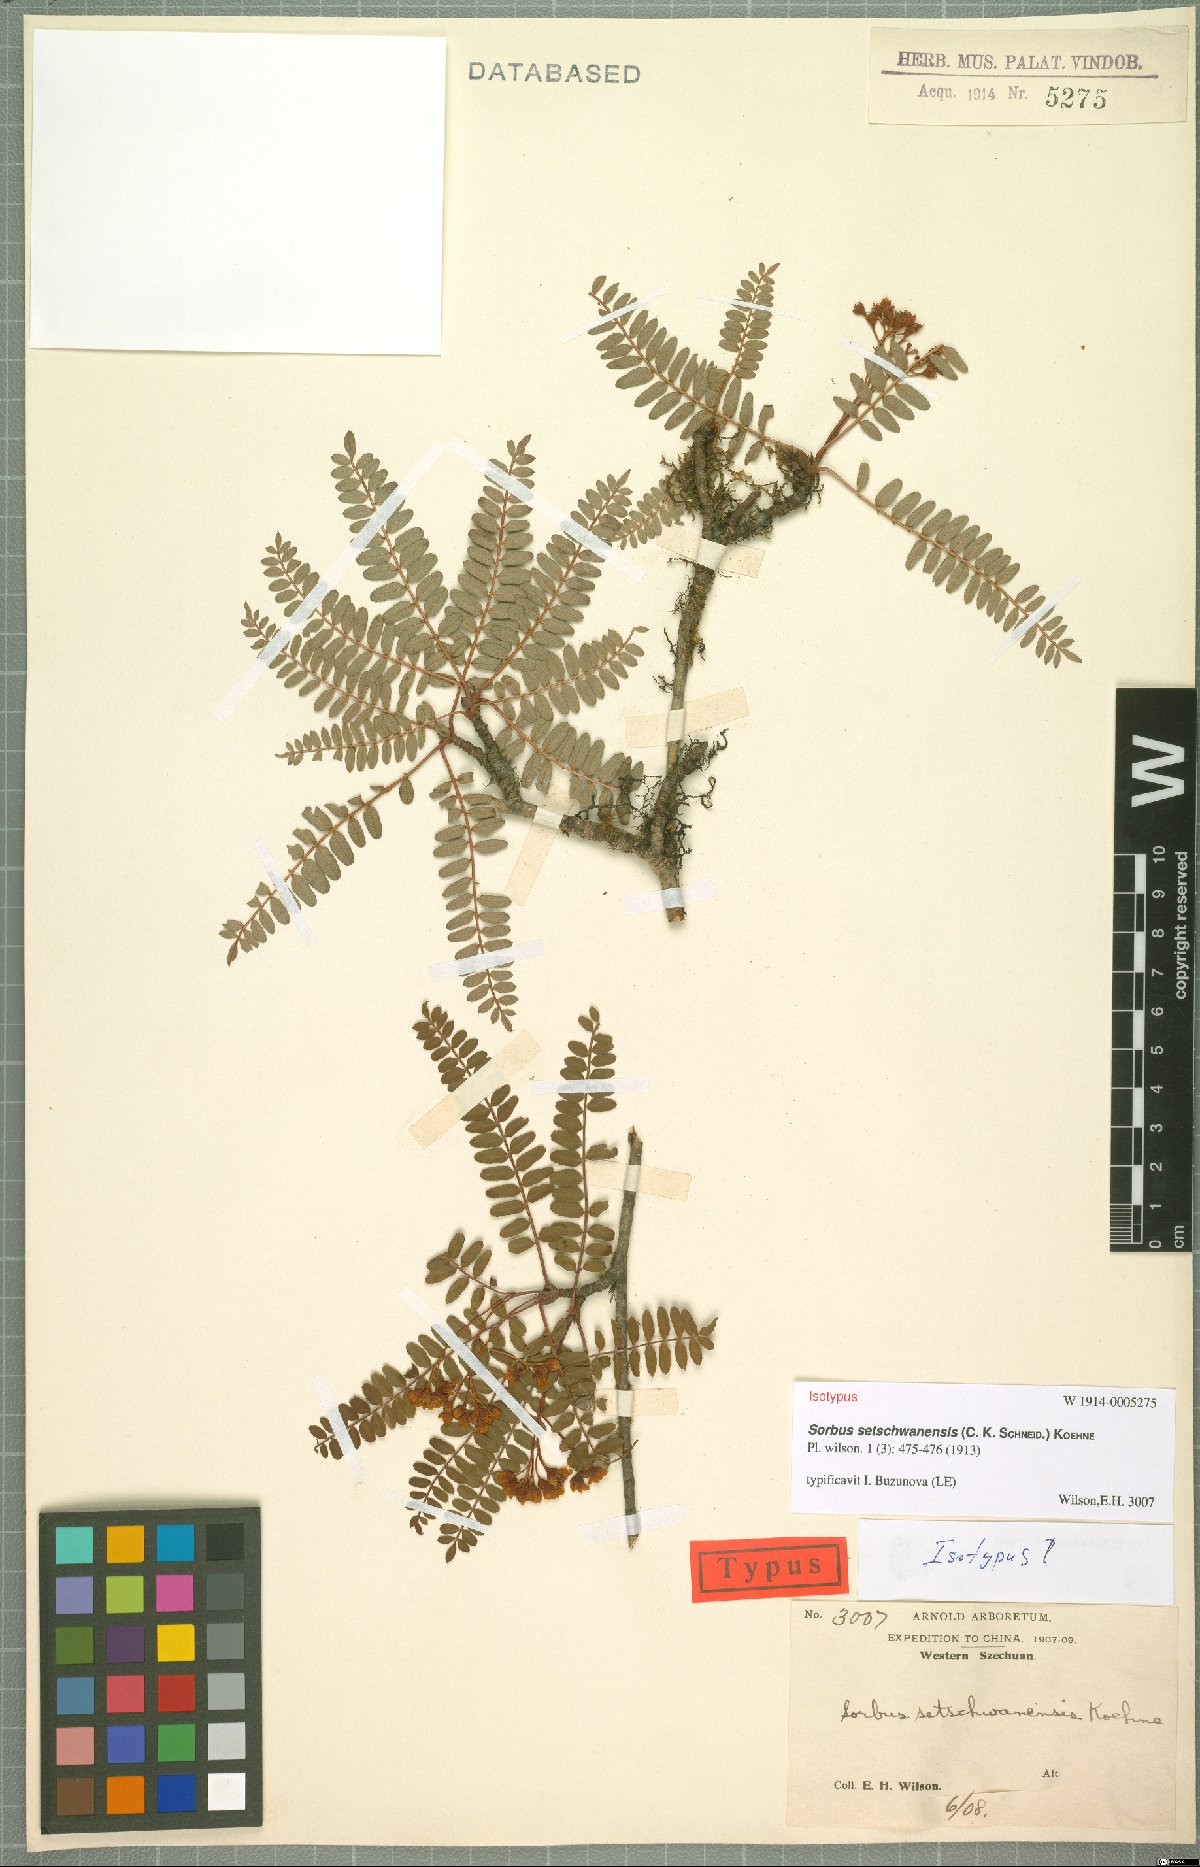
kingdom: Plantae
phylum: Tracheophyta
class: Magnoliopsida
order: Rosales
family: Rosaceae
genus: Sorbus
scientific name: Sorbus setschwanensis
